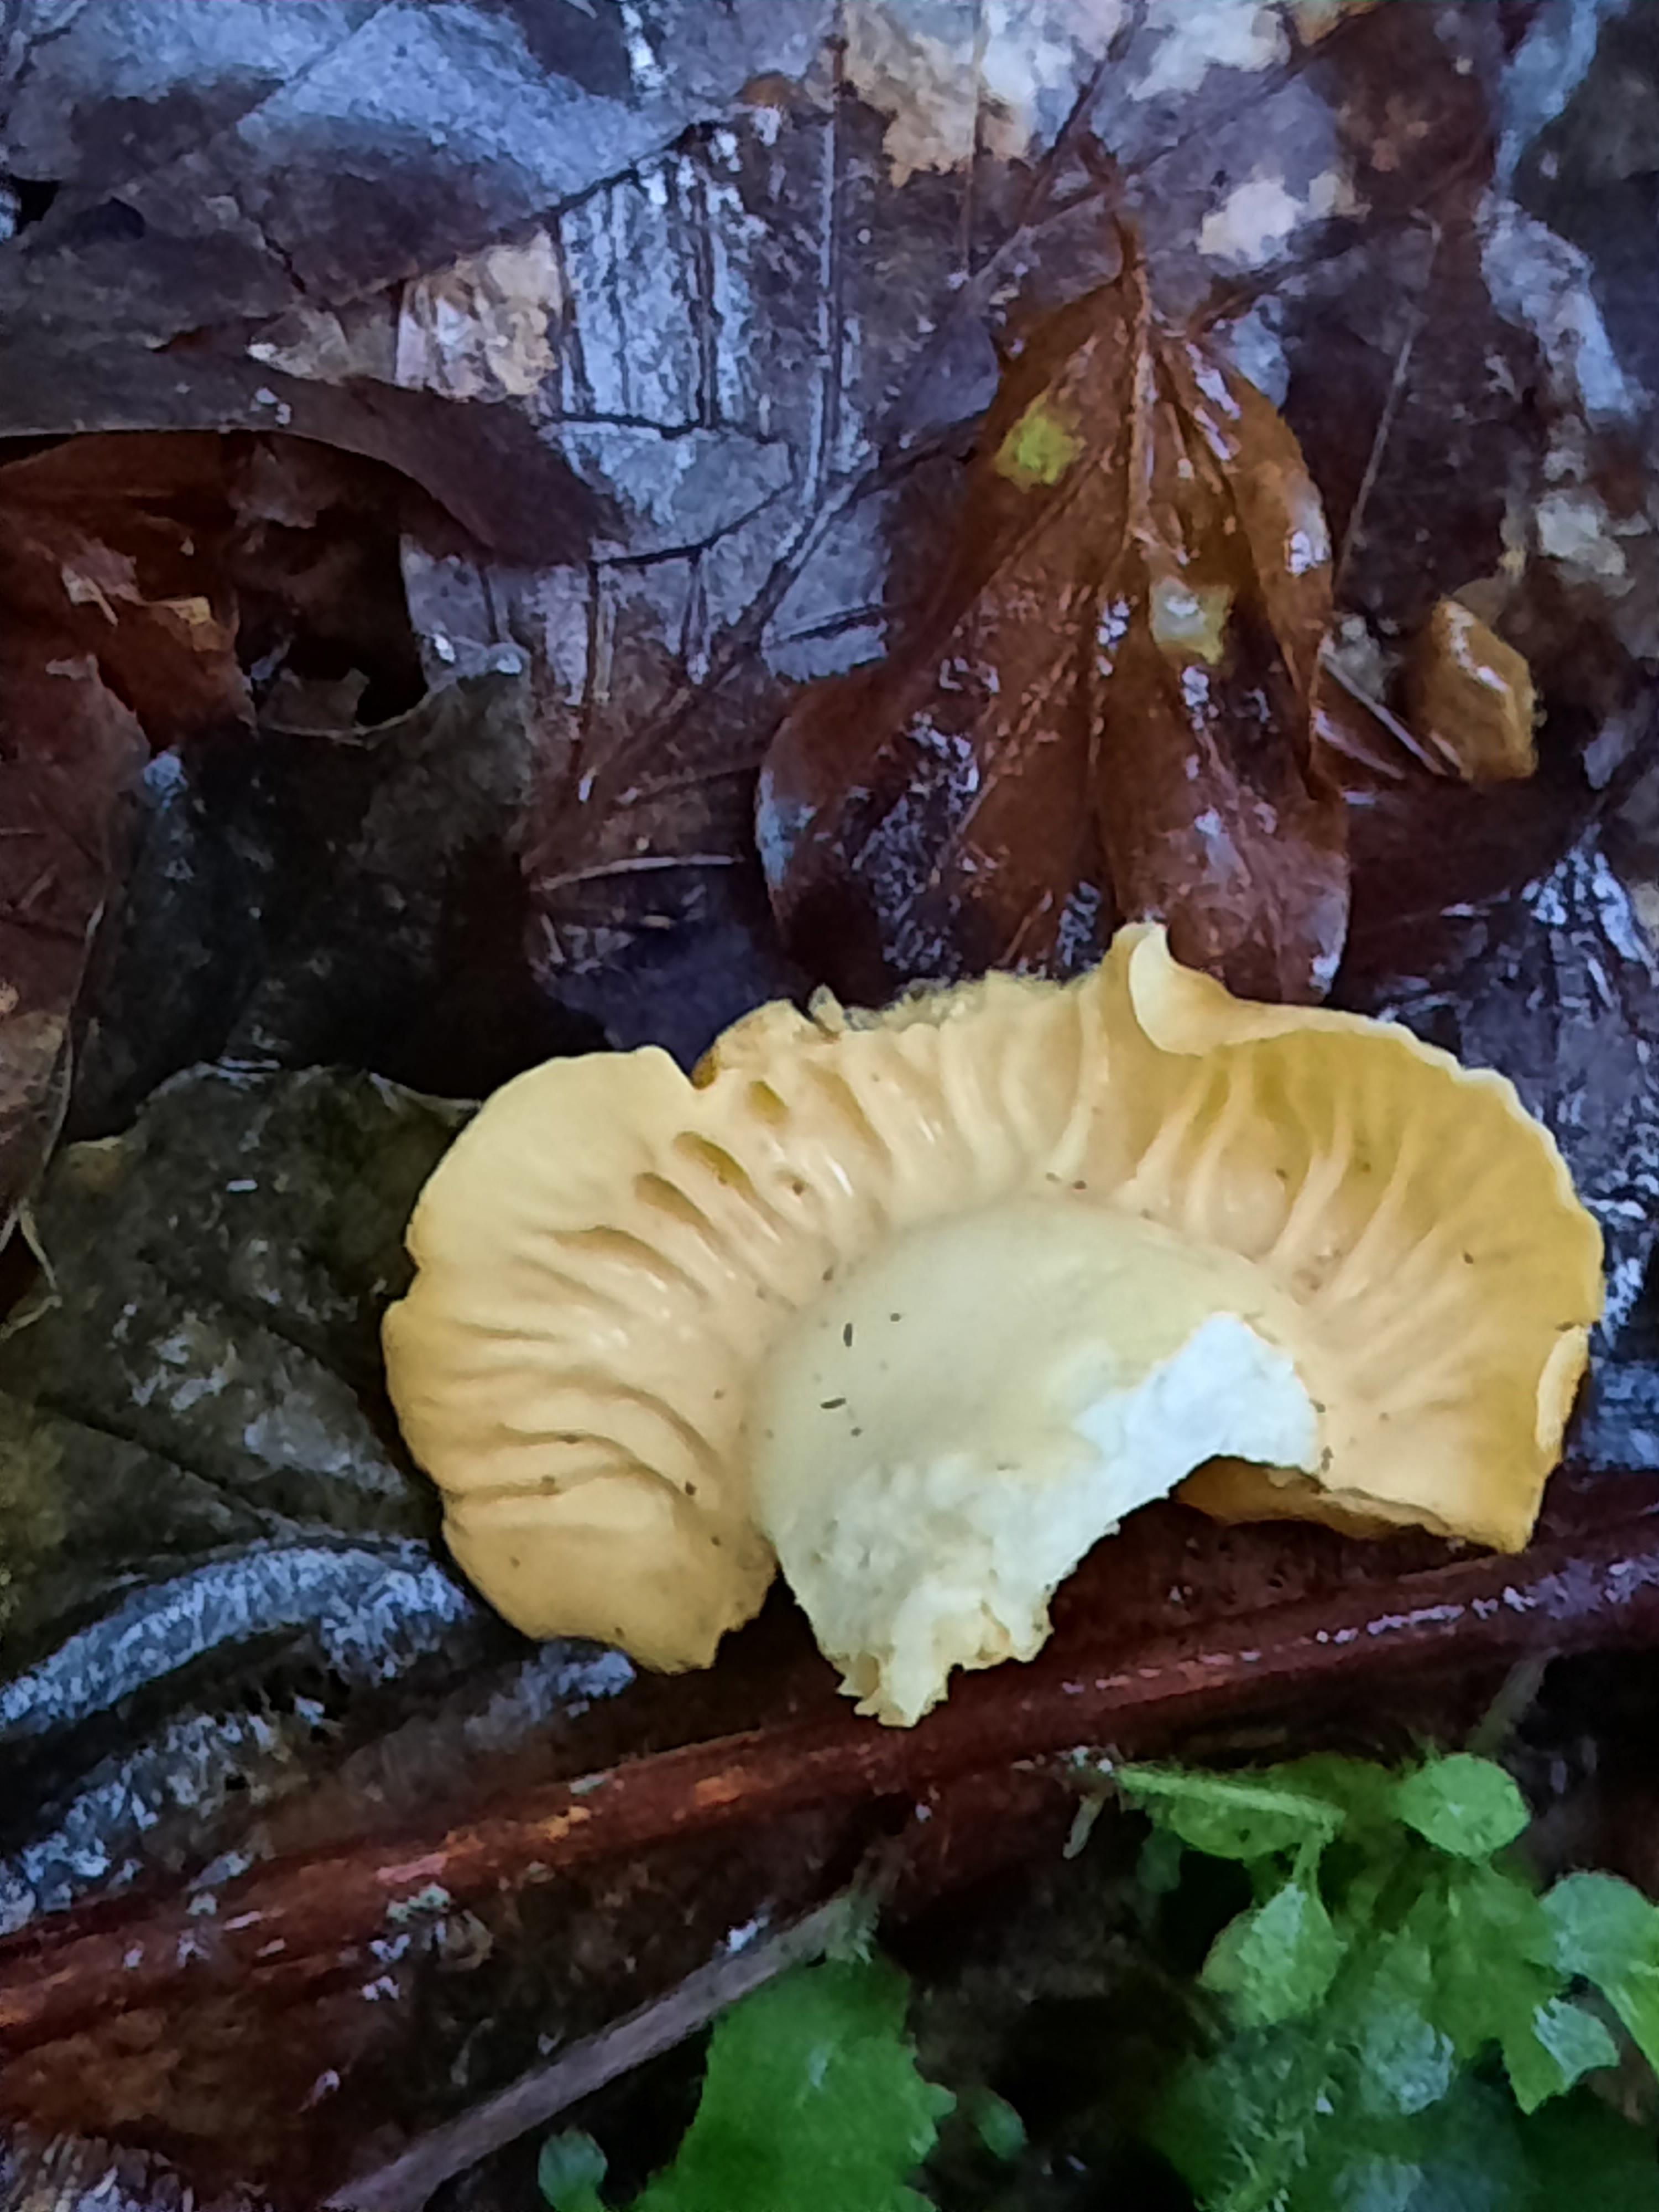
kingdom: Fungi
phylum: Basidiomycota
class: Agaricomycetes
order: Cantharellales
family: Hydnaceae
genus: Cantharellus
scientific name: Cantharellus amethysteus
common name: ametyst-kantarel
